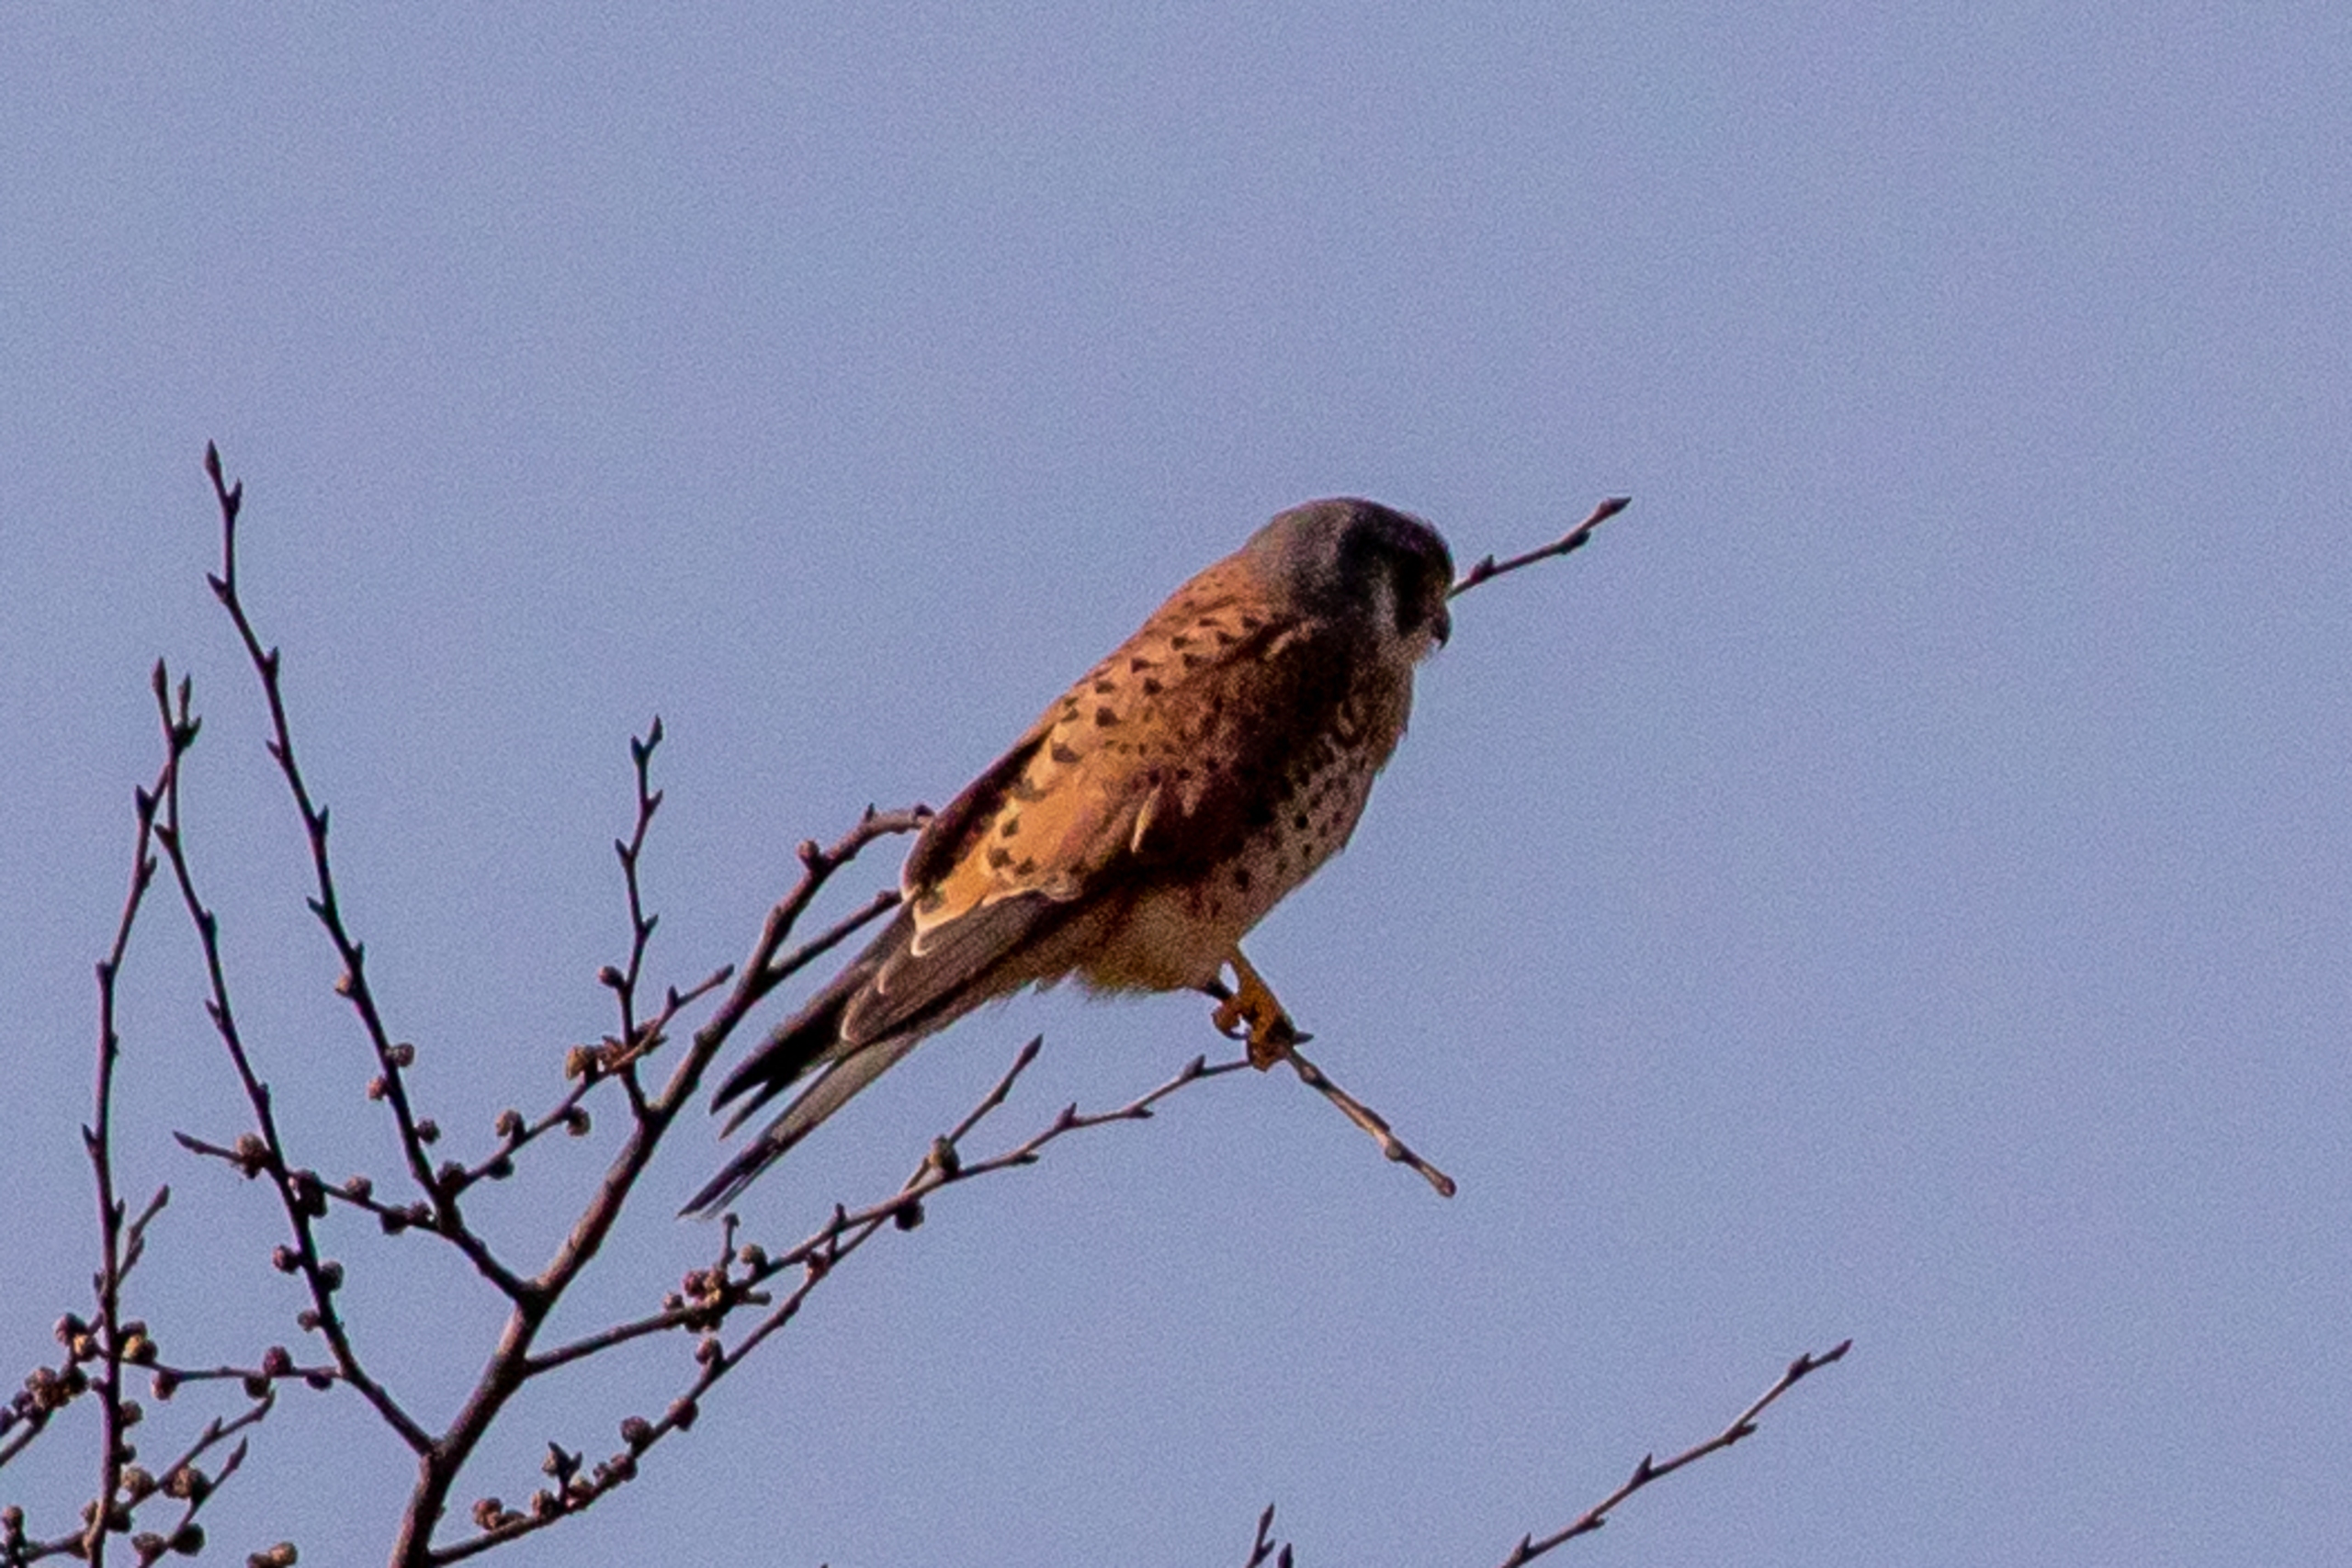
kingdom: Animalia
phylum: Chordata
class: Aves
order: Falconiformes
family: Falconidae
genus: Falco
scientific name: Falco tinnunculus
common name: Tårnfalk
